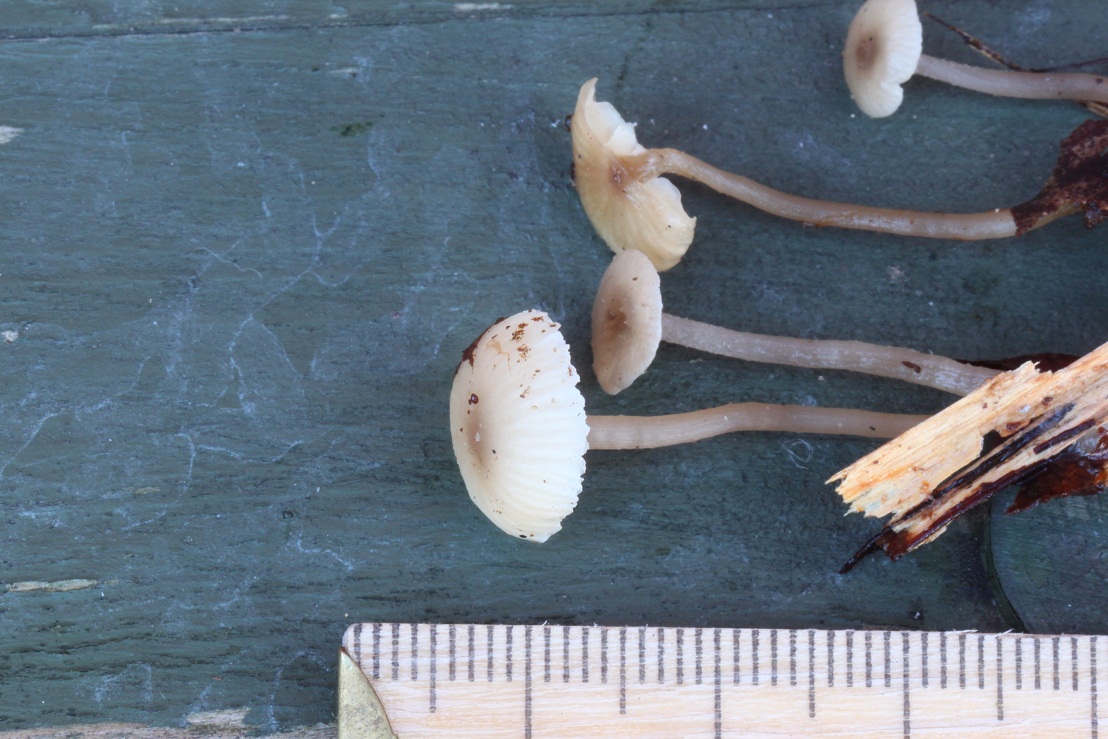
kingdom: Fungi
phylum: Basidiomycota
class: Agaricomycetes
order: Agaricales
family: Tricholomataceae
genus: Gamundia
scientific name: Gamundia striatula
